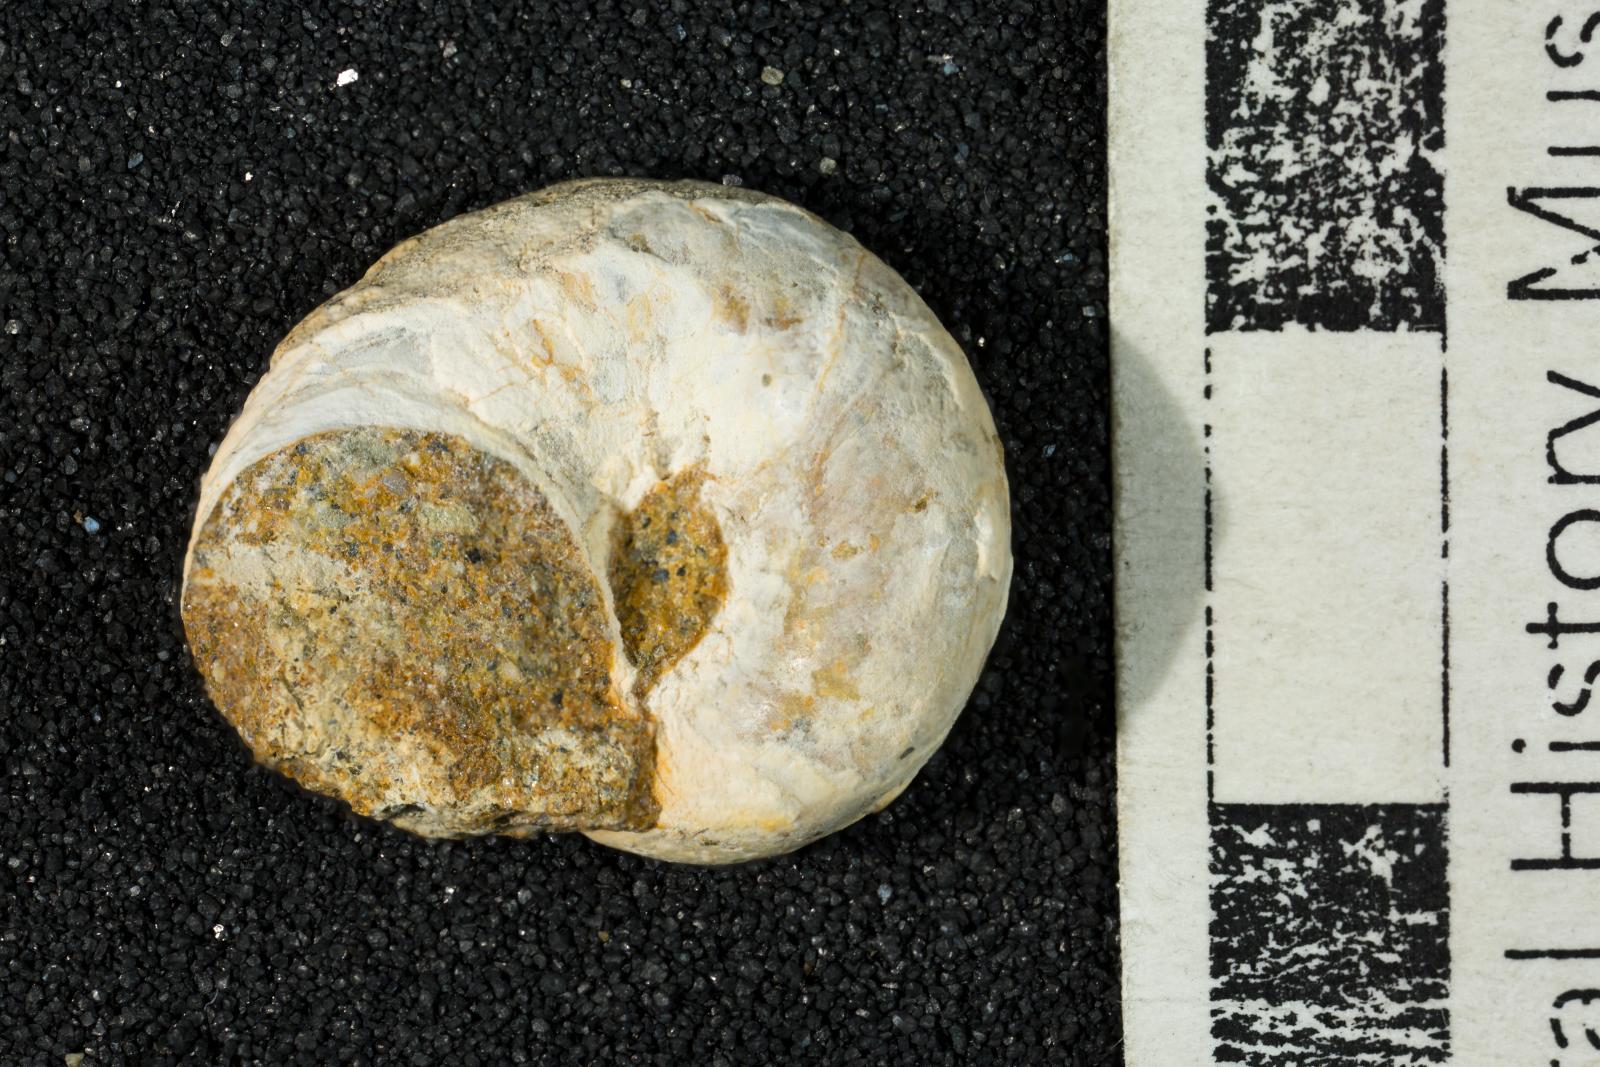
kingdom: Animalia
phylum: Mollusca
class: Bivalvia
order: Ostreida
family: Pteriidae
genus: Atira
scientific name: Atira popenoei
